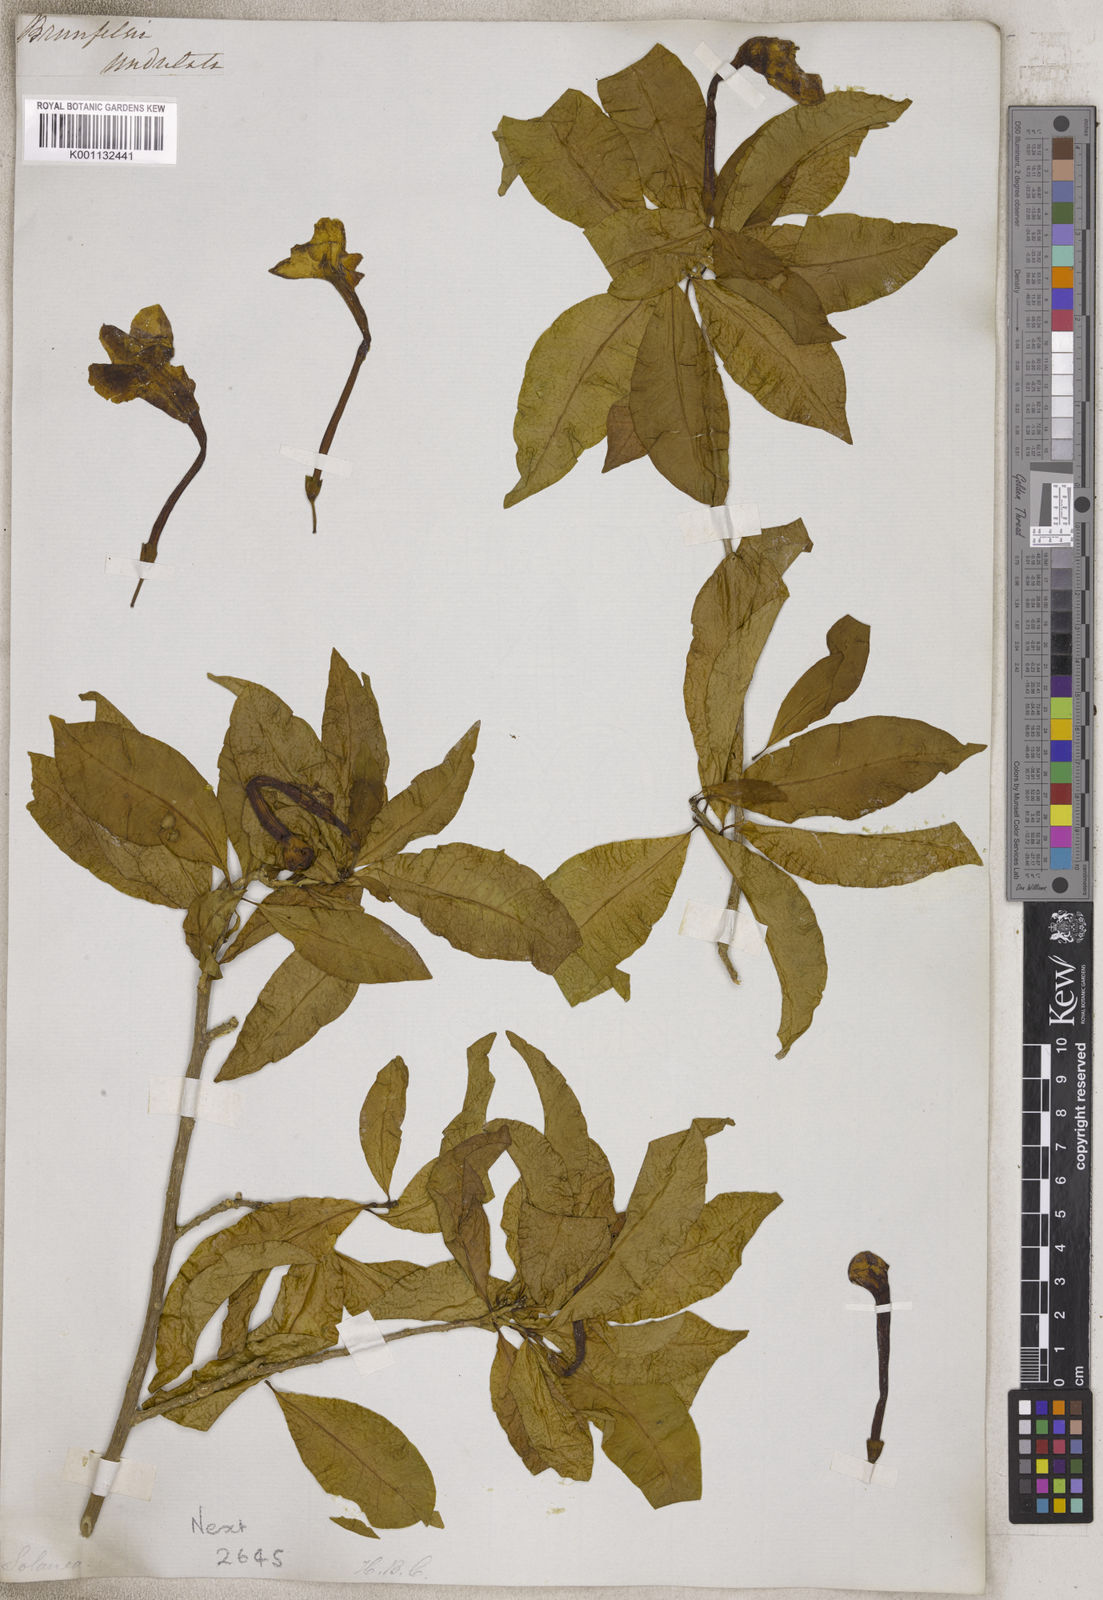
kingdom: Plantae
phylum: Tracheophyta
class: Magnoliopsida
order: Solanales
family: Solanaceae
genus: Brunfelsia
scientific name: Brunfelsia
